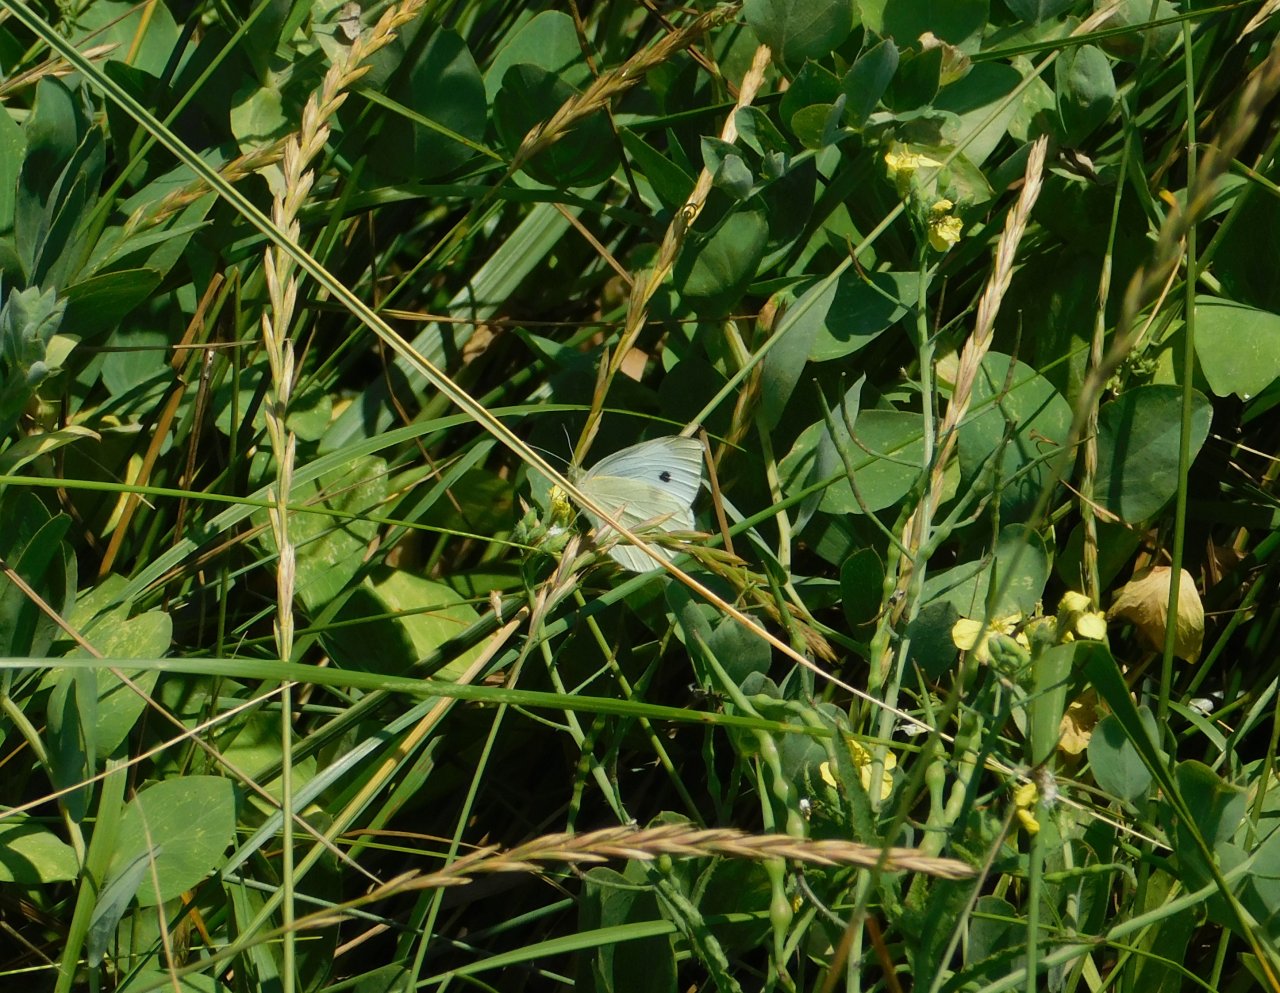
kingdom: Animalia
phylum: Arthropoda
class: Insecta
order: Lepidoptera
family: Pieridae
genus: Pieris
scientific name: Pieris rapae
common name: Cabbage White
